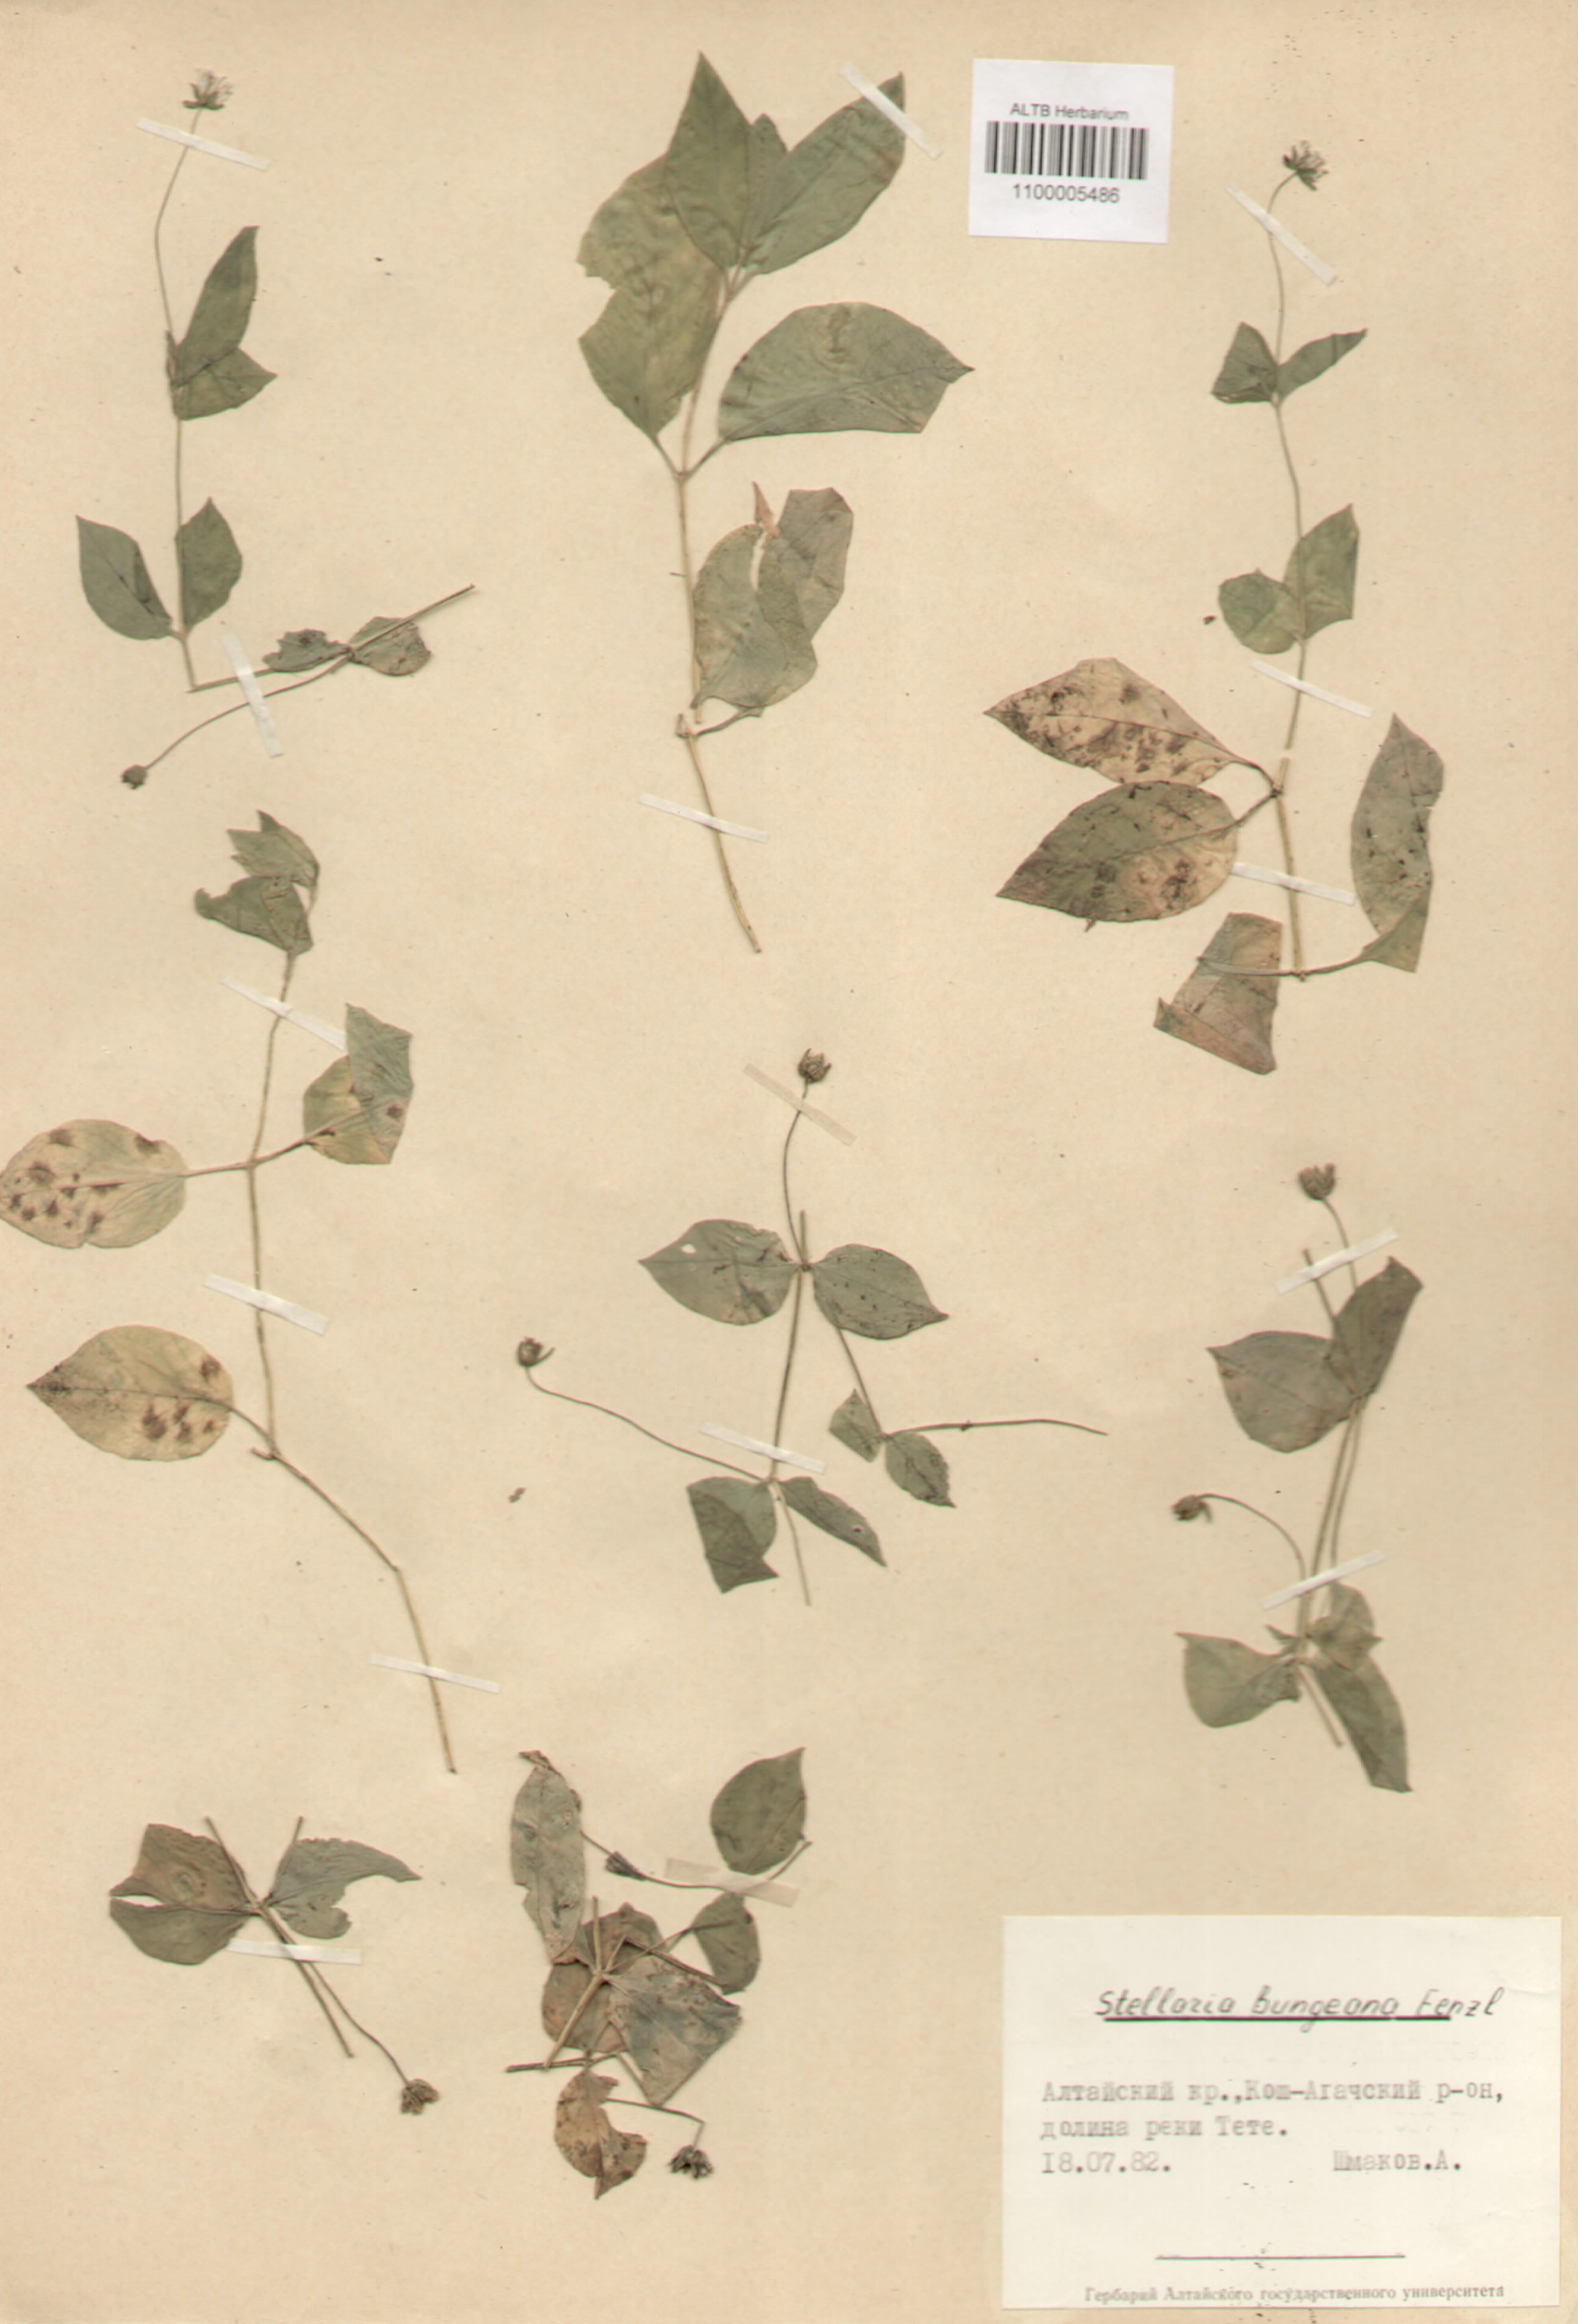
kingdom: Plantae
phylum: Tracheophyta
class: Magnoliopsida
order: Caryophyllales
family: Caryophyllaceae
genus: Stellaria
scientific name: Stellaria bungeana
